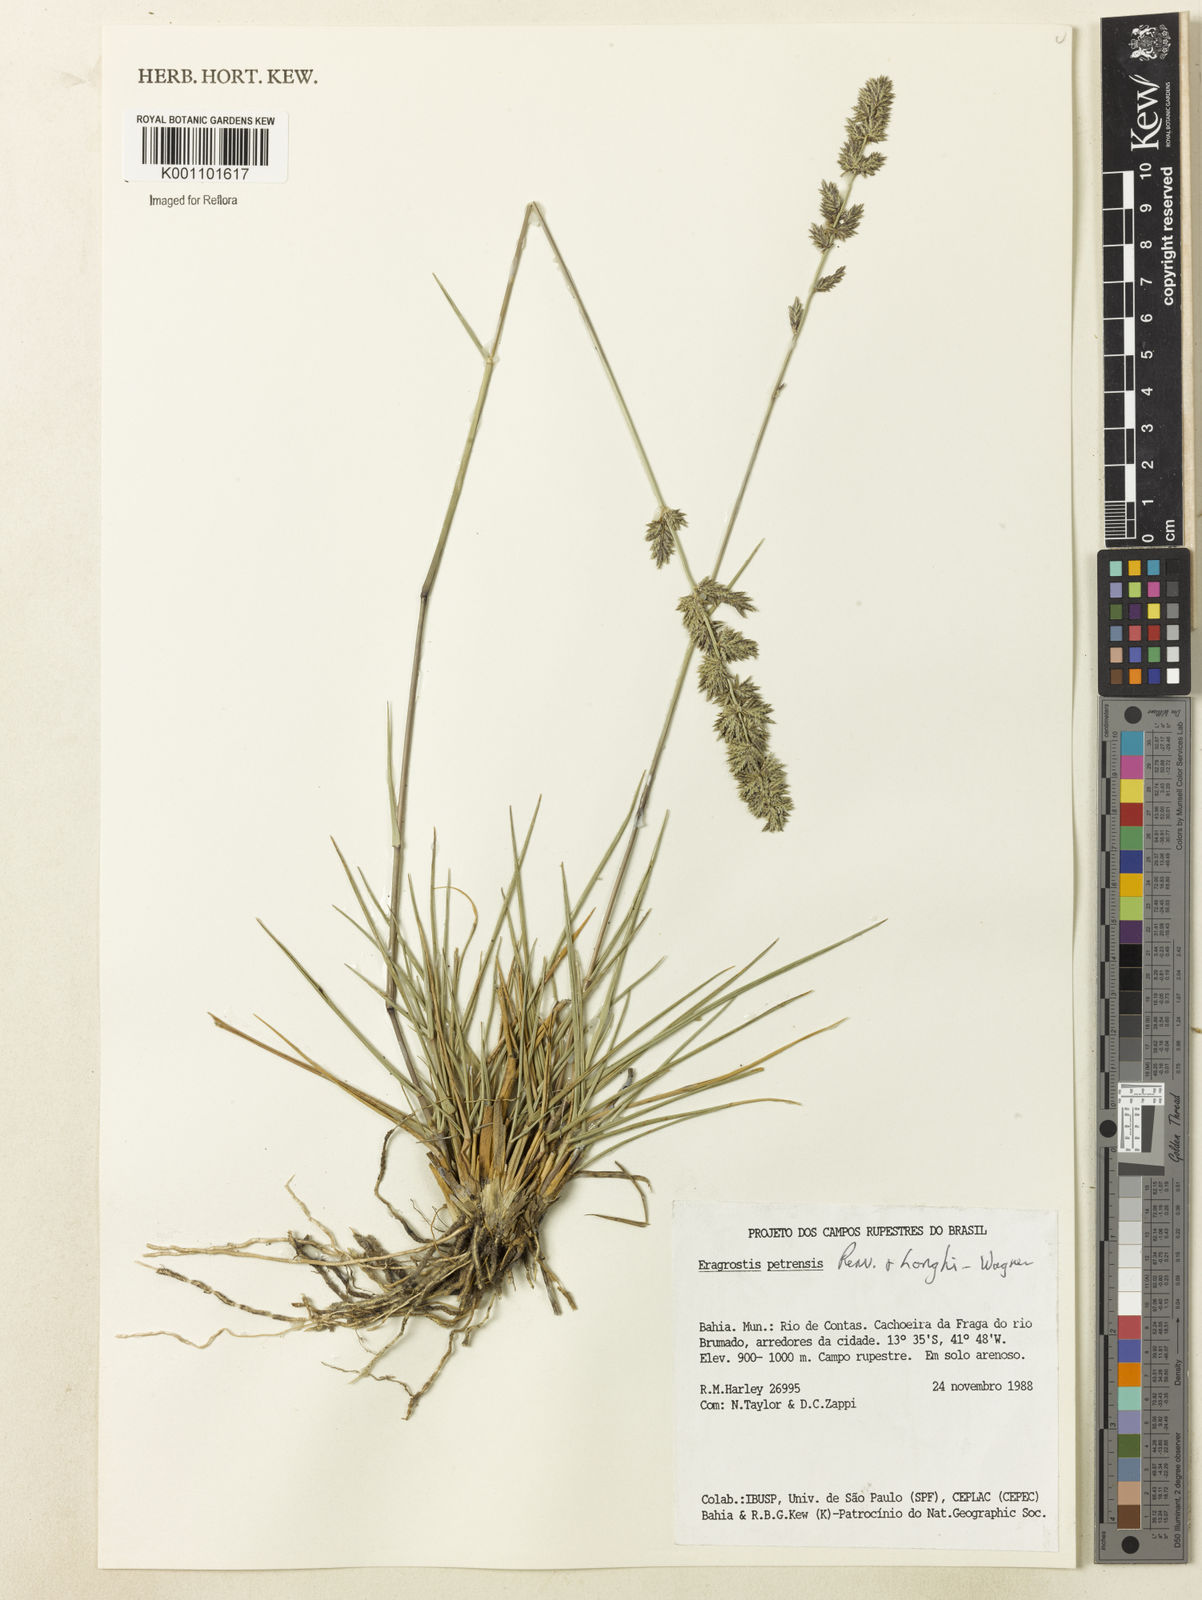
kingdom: Plantae
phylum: Tracheophyta
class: Liliopsida
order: Poales
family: Poaceae
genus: Eragrostis
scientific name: Eragrostis petrensis
